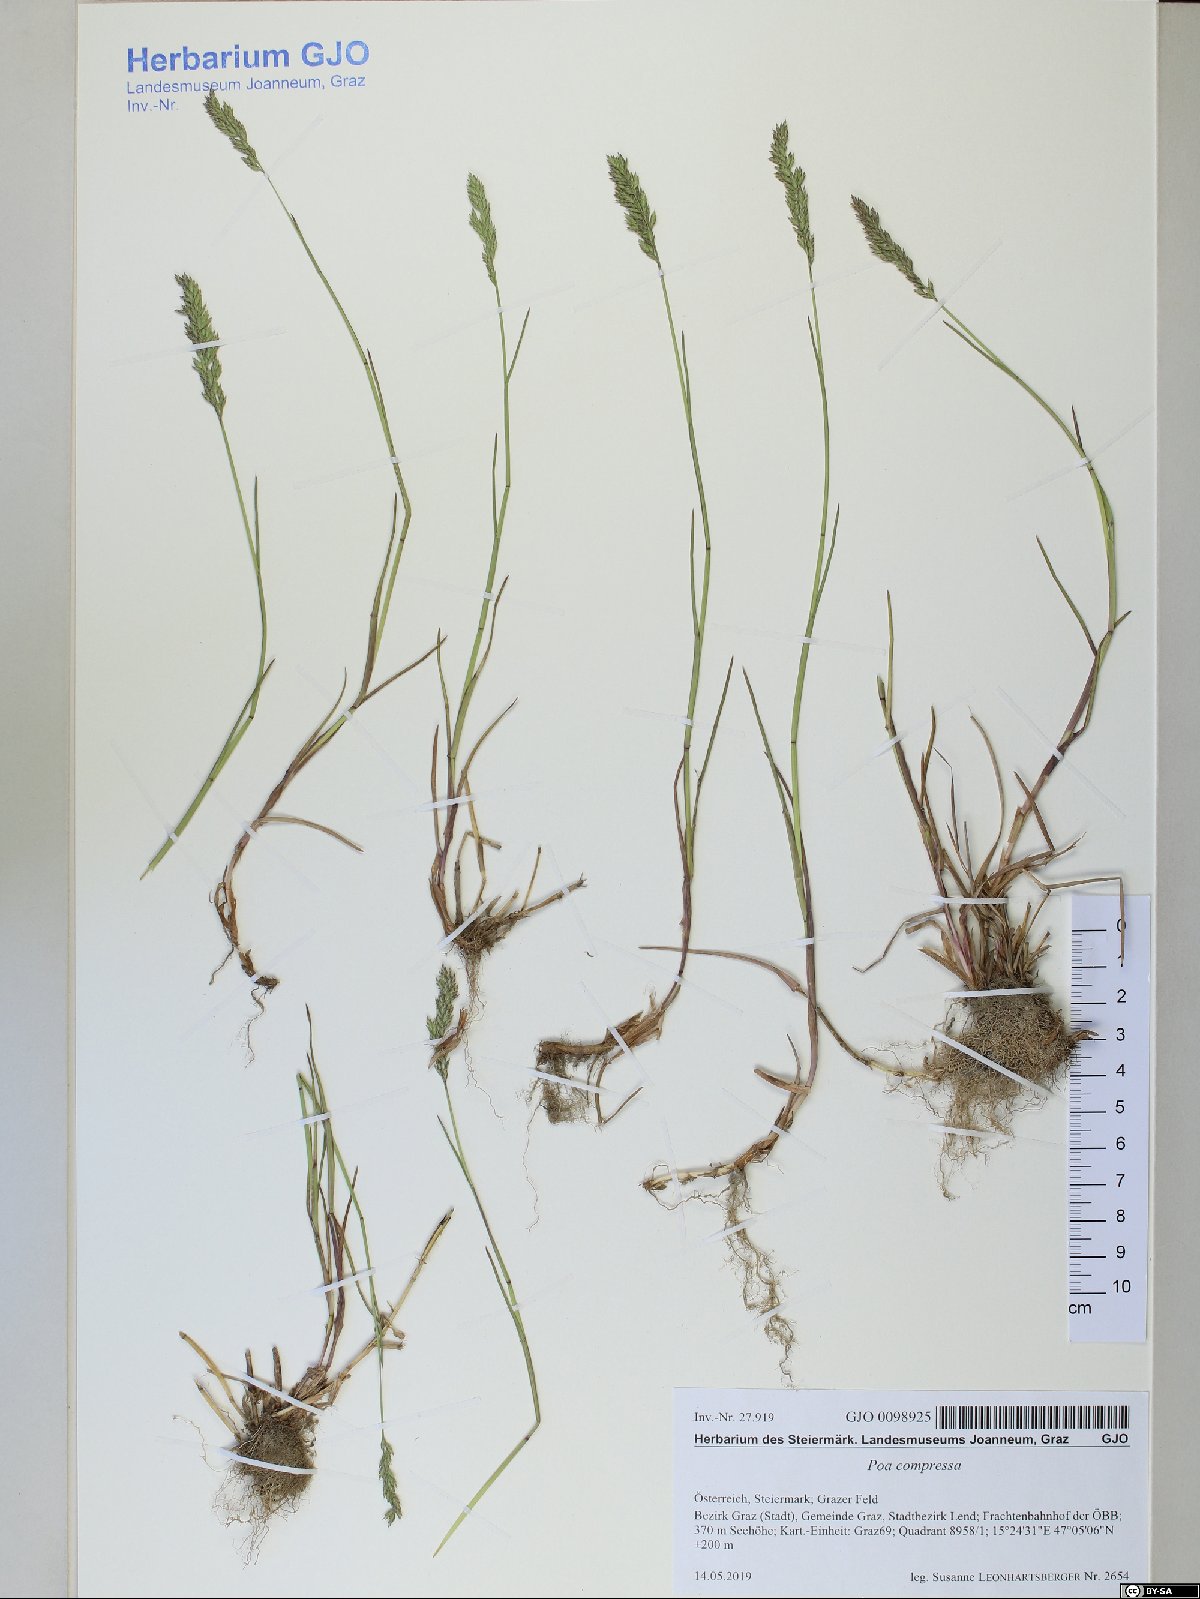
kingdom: Plantae
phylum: Tracheophyta
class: Liliopsida
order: Poales
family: Poaceae
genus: Poa
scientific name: Poa compressa
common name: Canada bluegrass
